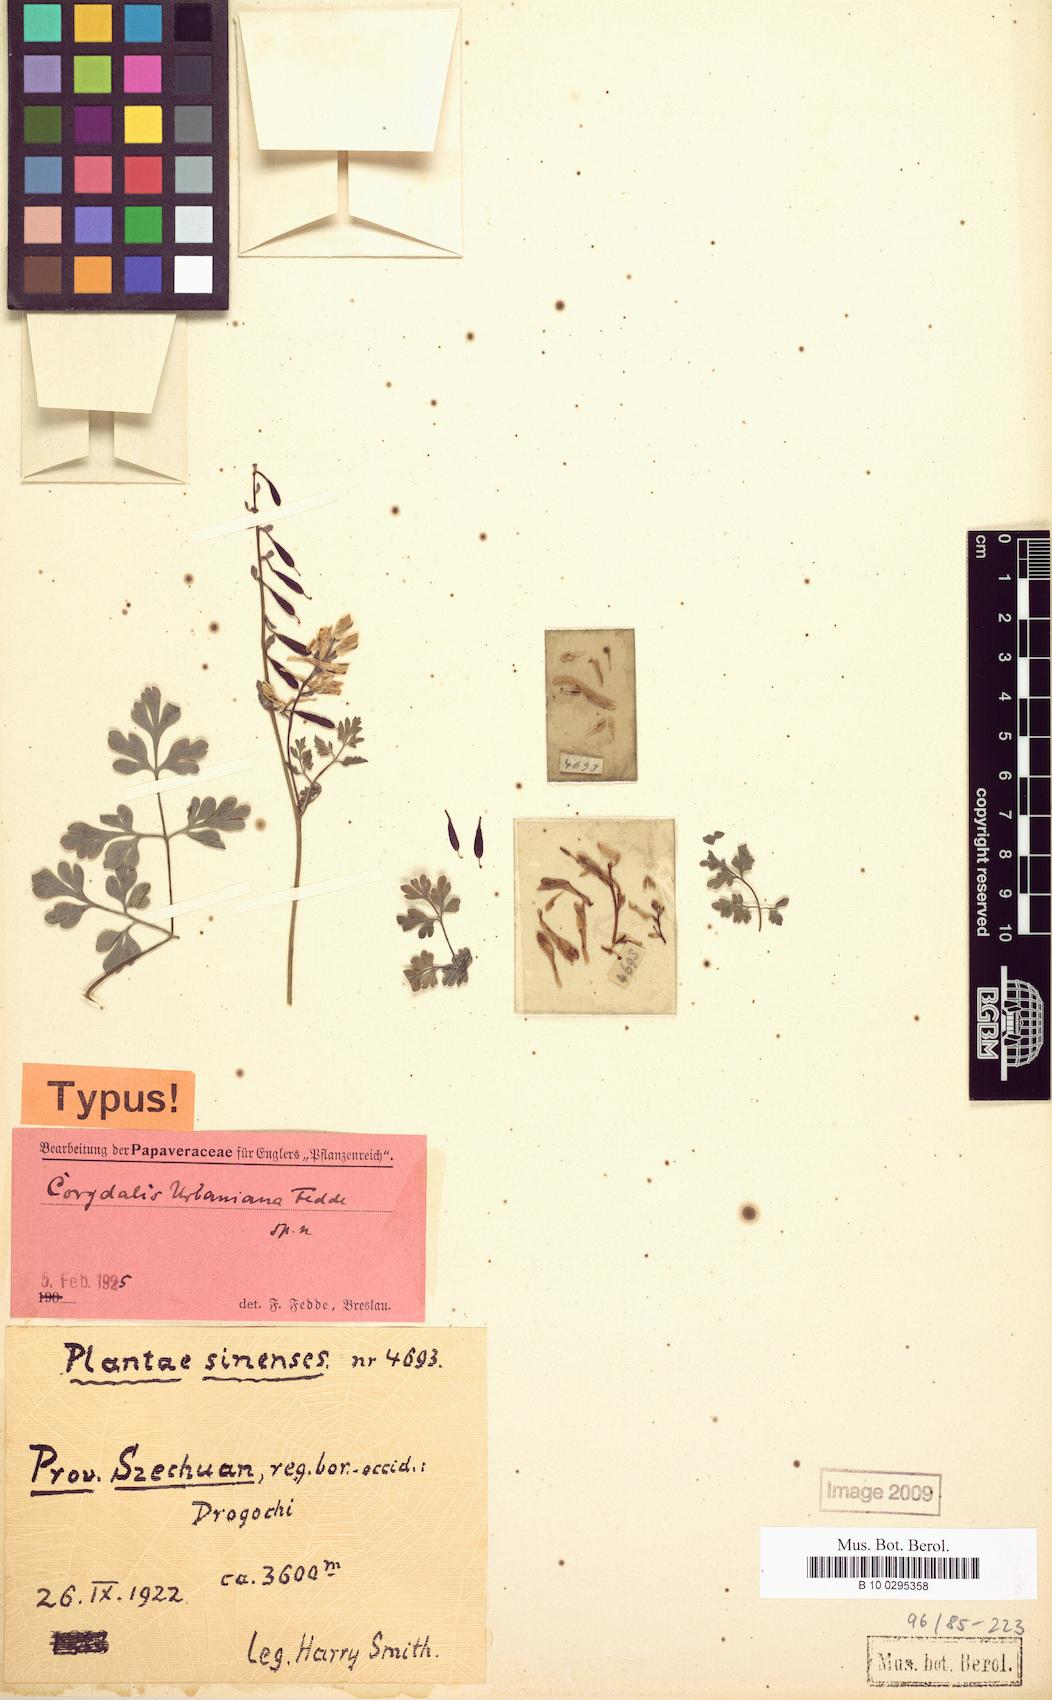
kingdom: Plantae
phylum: Tracheophyta
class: Magnoliopsida
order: Ranunculales
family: Papaveraceae
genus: Corydalis
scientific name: Corydalis laucheana
